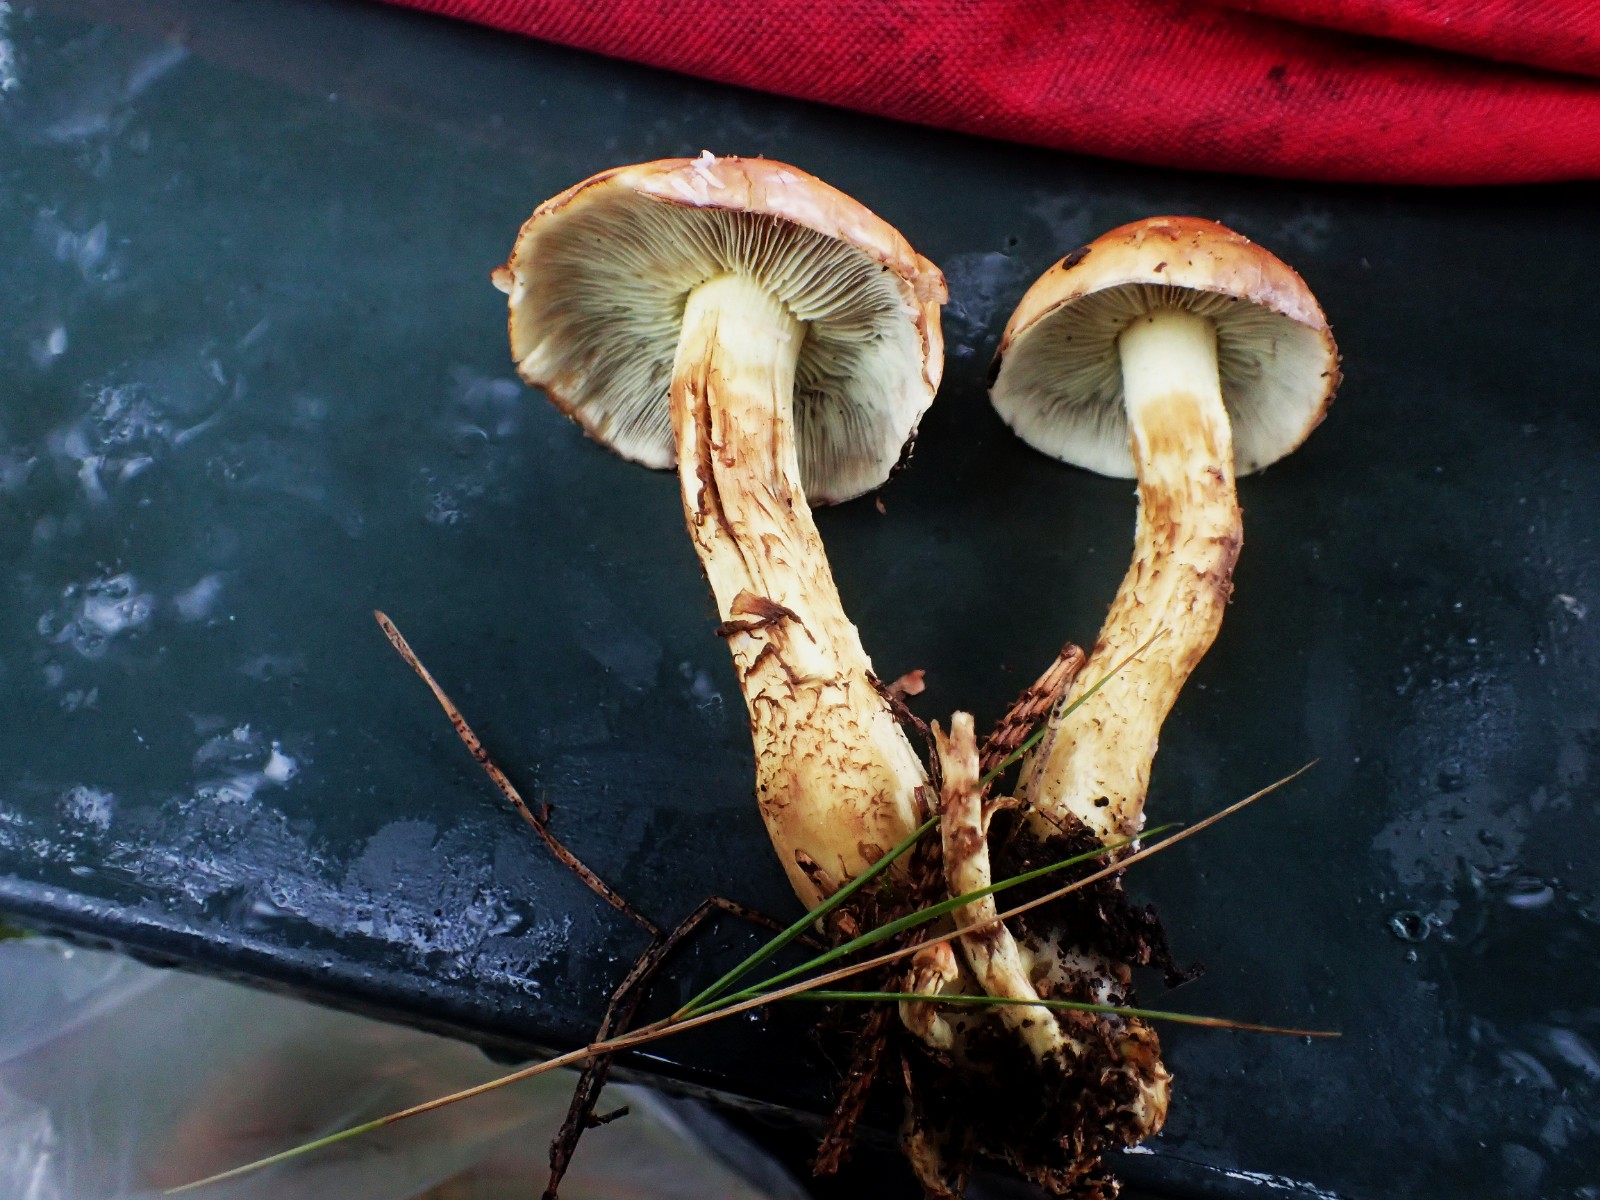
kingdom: Fungi
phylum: Basidiomycota
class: Agaricomycetes
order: Agaricales
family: Strophariaceae
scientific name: Strophariaceae
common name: bredbladfamilien
